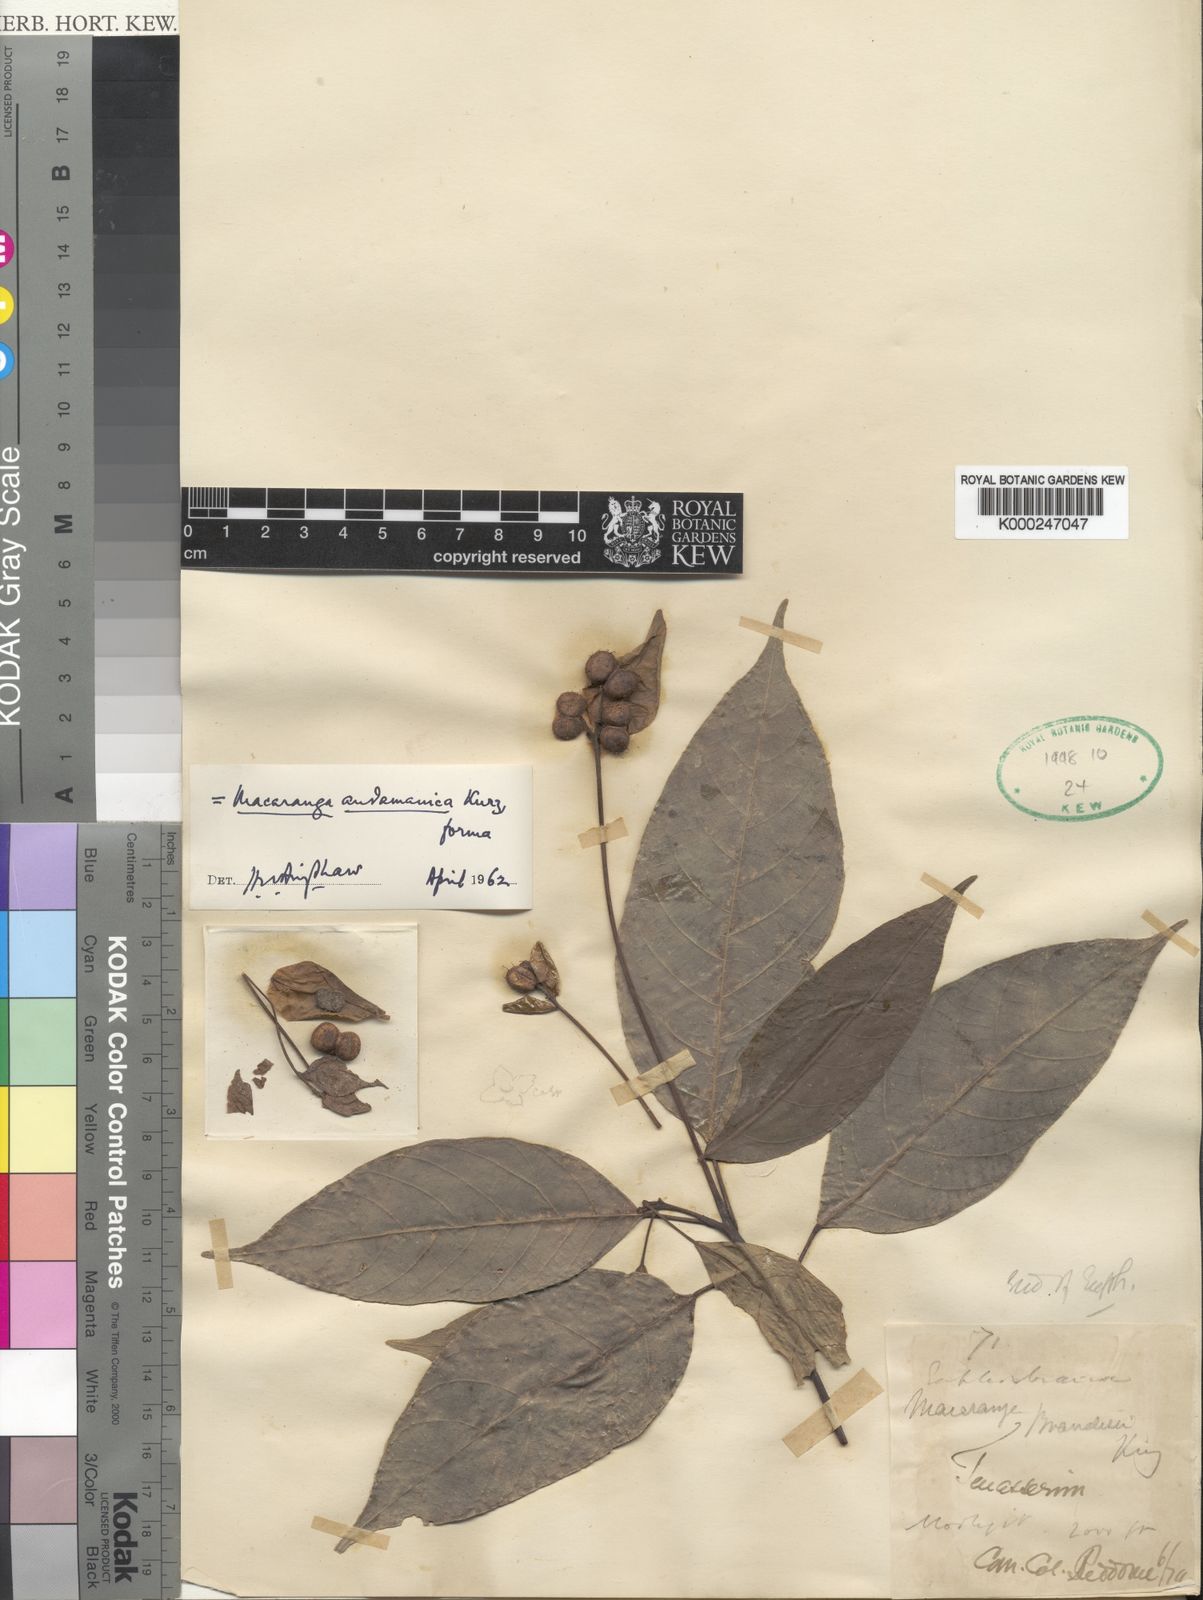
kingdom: Plantae
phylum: Tracheophyta
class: Magnoliopsida
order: Malpighiales
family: Euphorbiaceae
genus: Macaranga
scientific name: Macaranga andamanica
